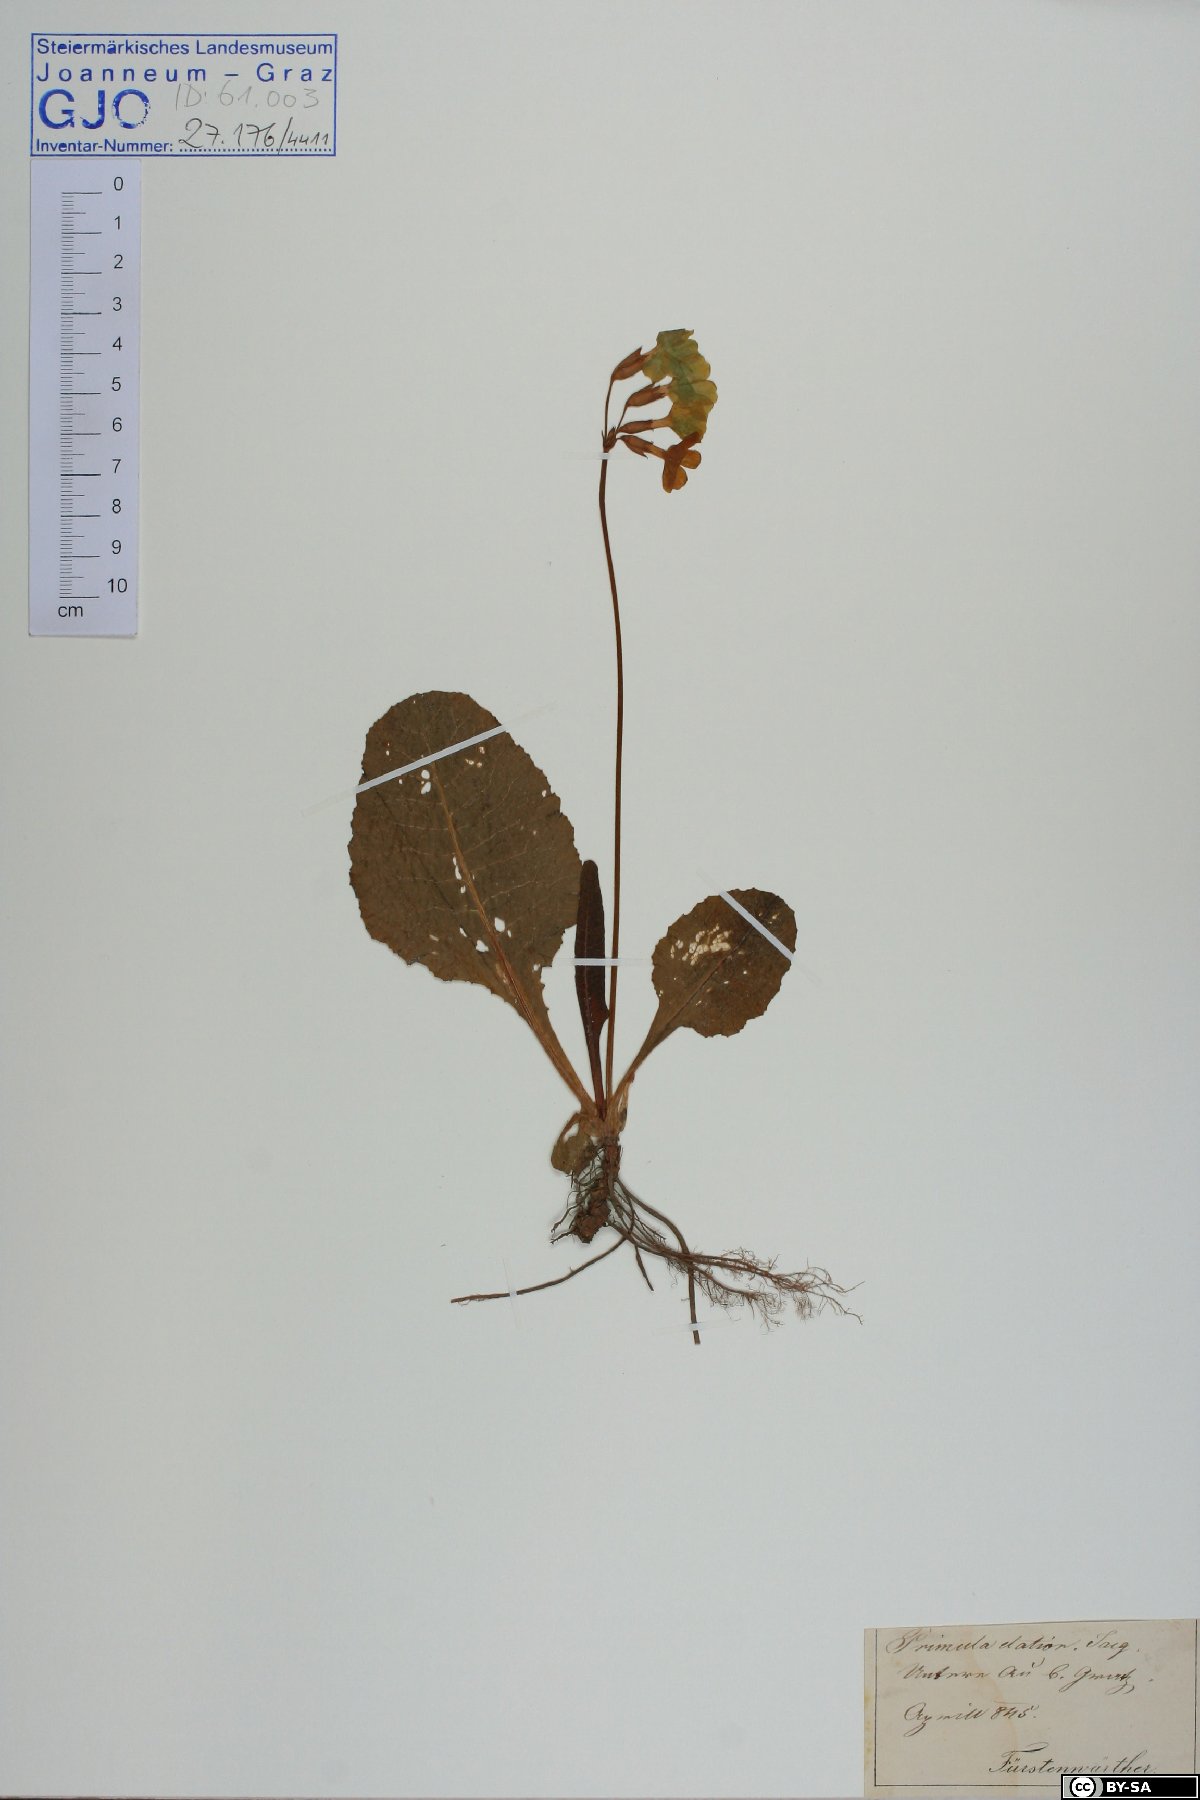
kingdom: Plantae
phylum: Tracheophyta
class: Magnoliopsida
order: Ericales
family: Primulaceae
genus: Primula
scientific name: Primula elatior
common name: Oxlip
